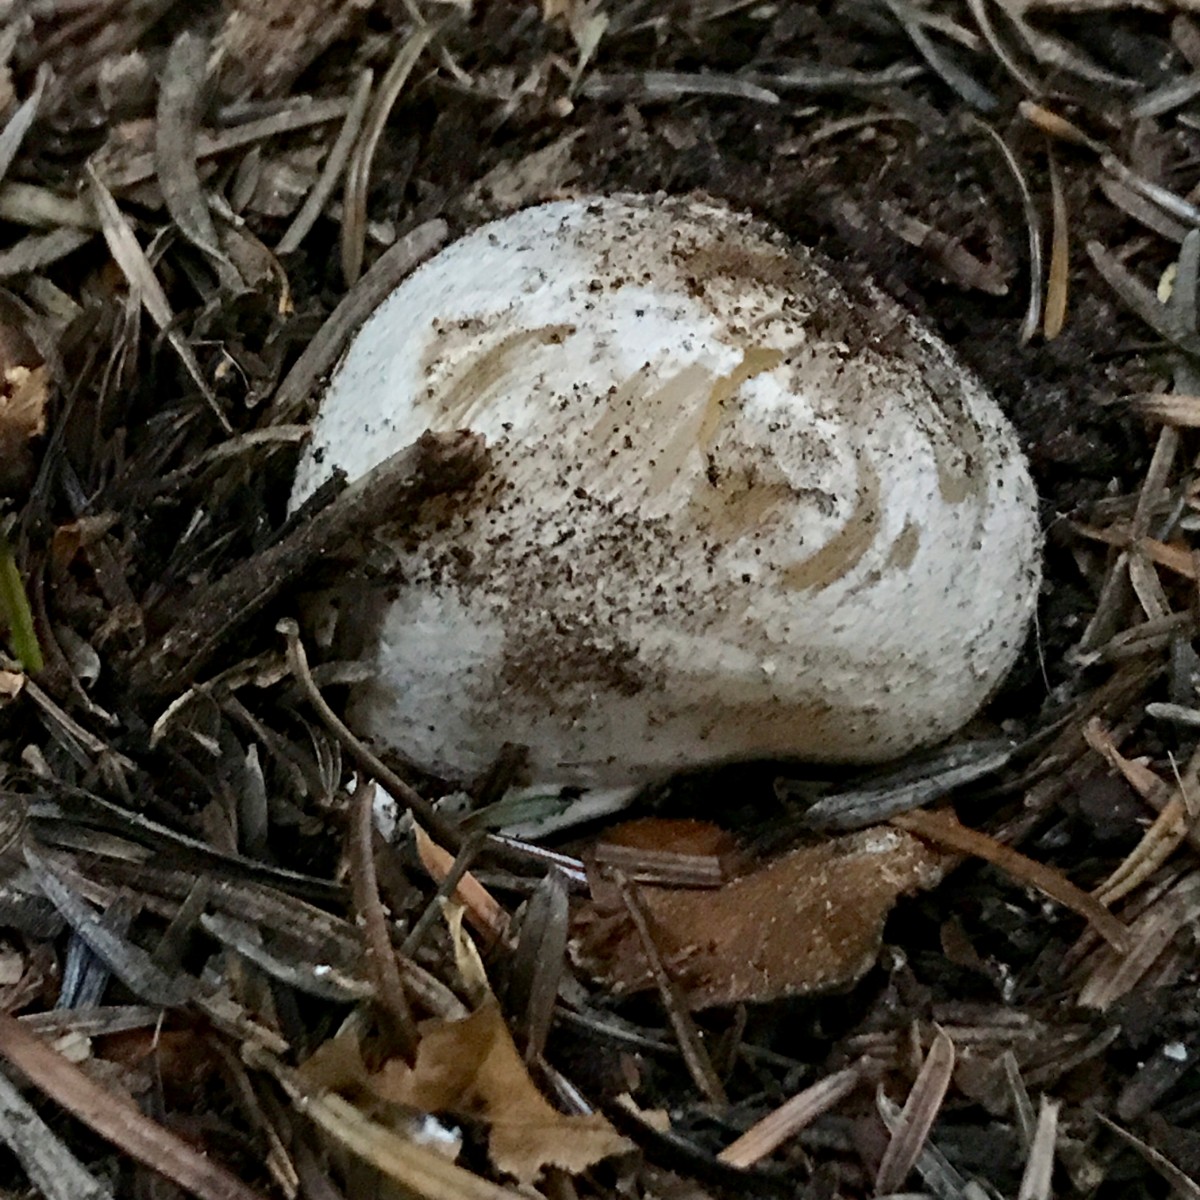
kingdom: Fungi
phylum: Basidiomycota
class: Agaricomycetes
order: Phallales
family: Phallaceae
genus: Phallus
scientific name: Phallus impudicus
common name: almindelig stinksvamp
